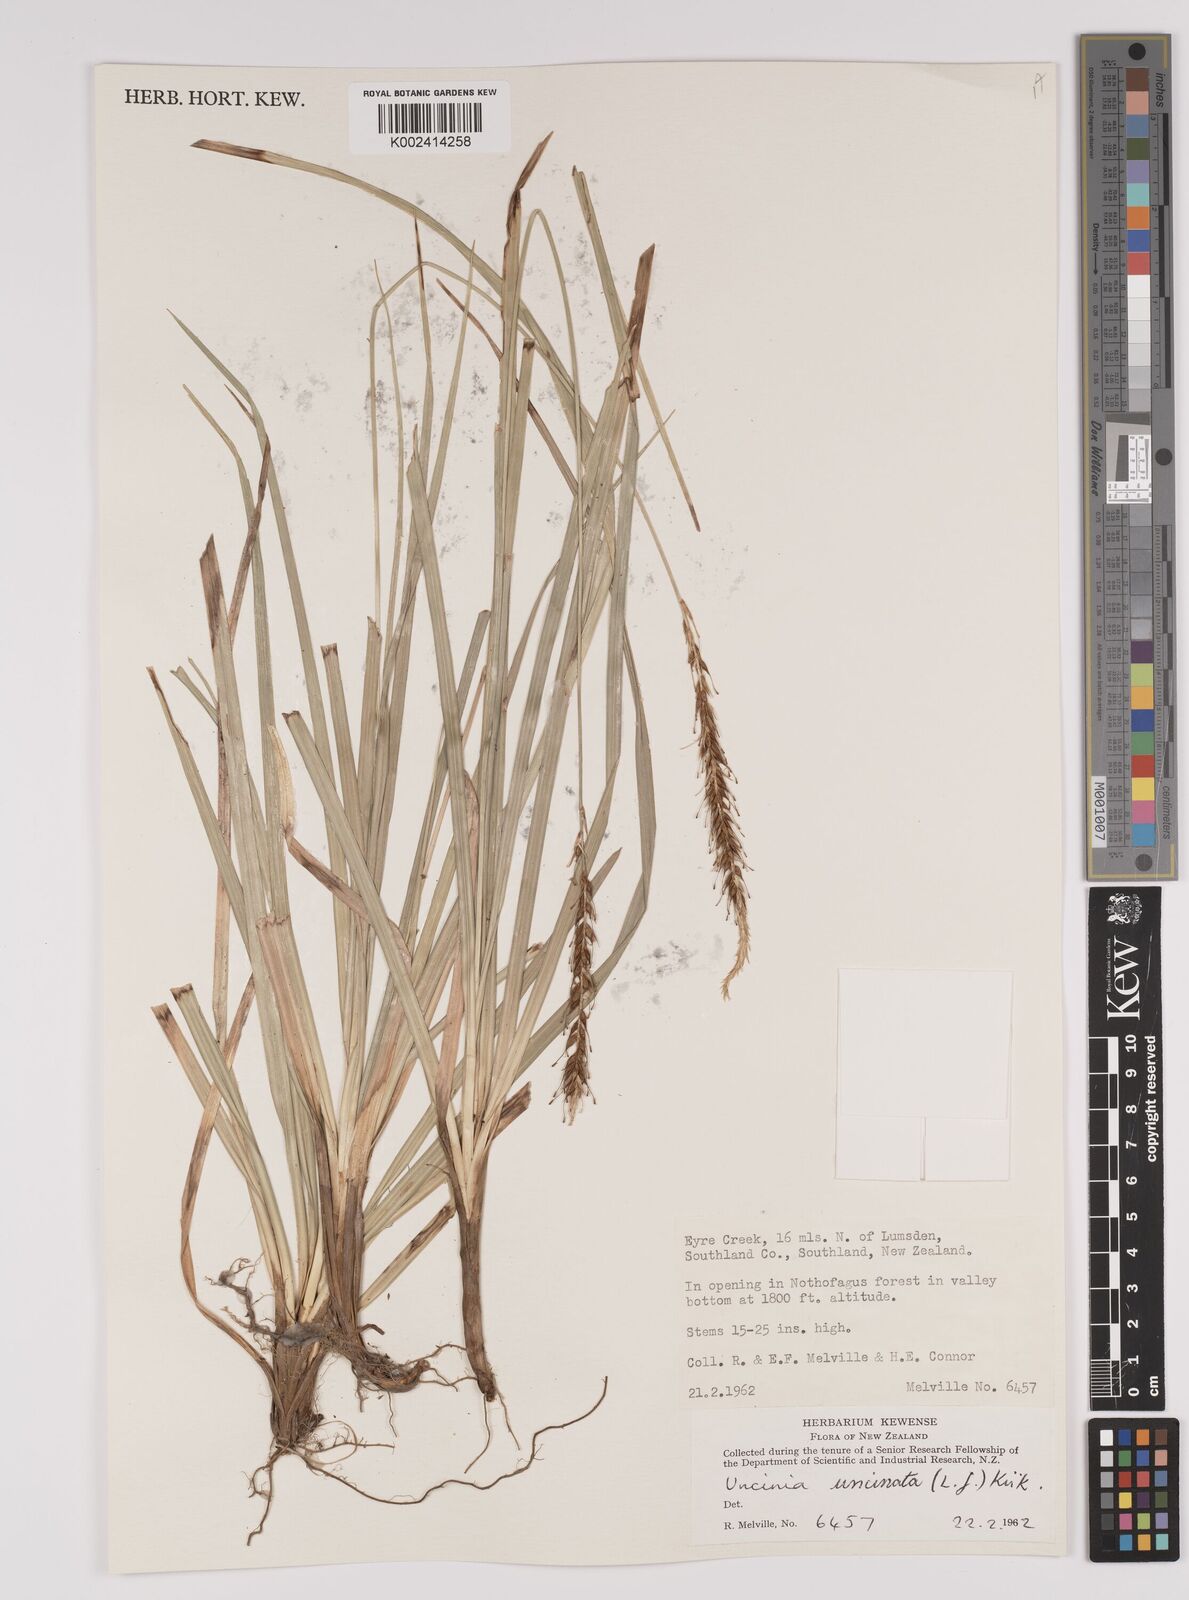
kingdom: Plantae
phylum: Tracheophyta
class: Liliopsida
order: Poales
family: Cyperaceae
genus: Carex
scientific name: Carex uncinata
